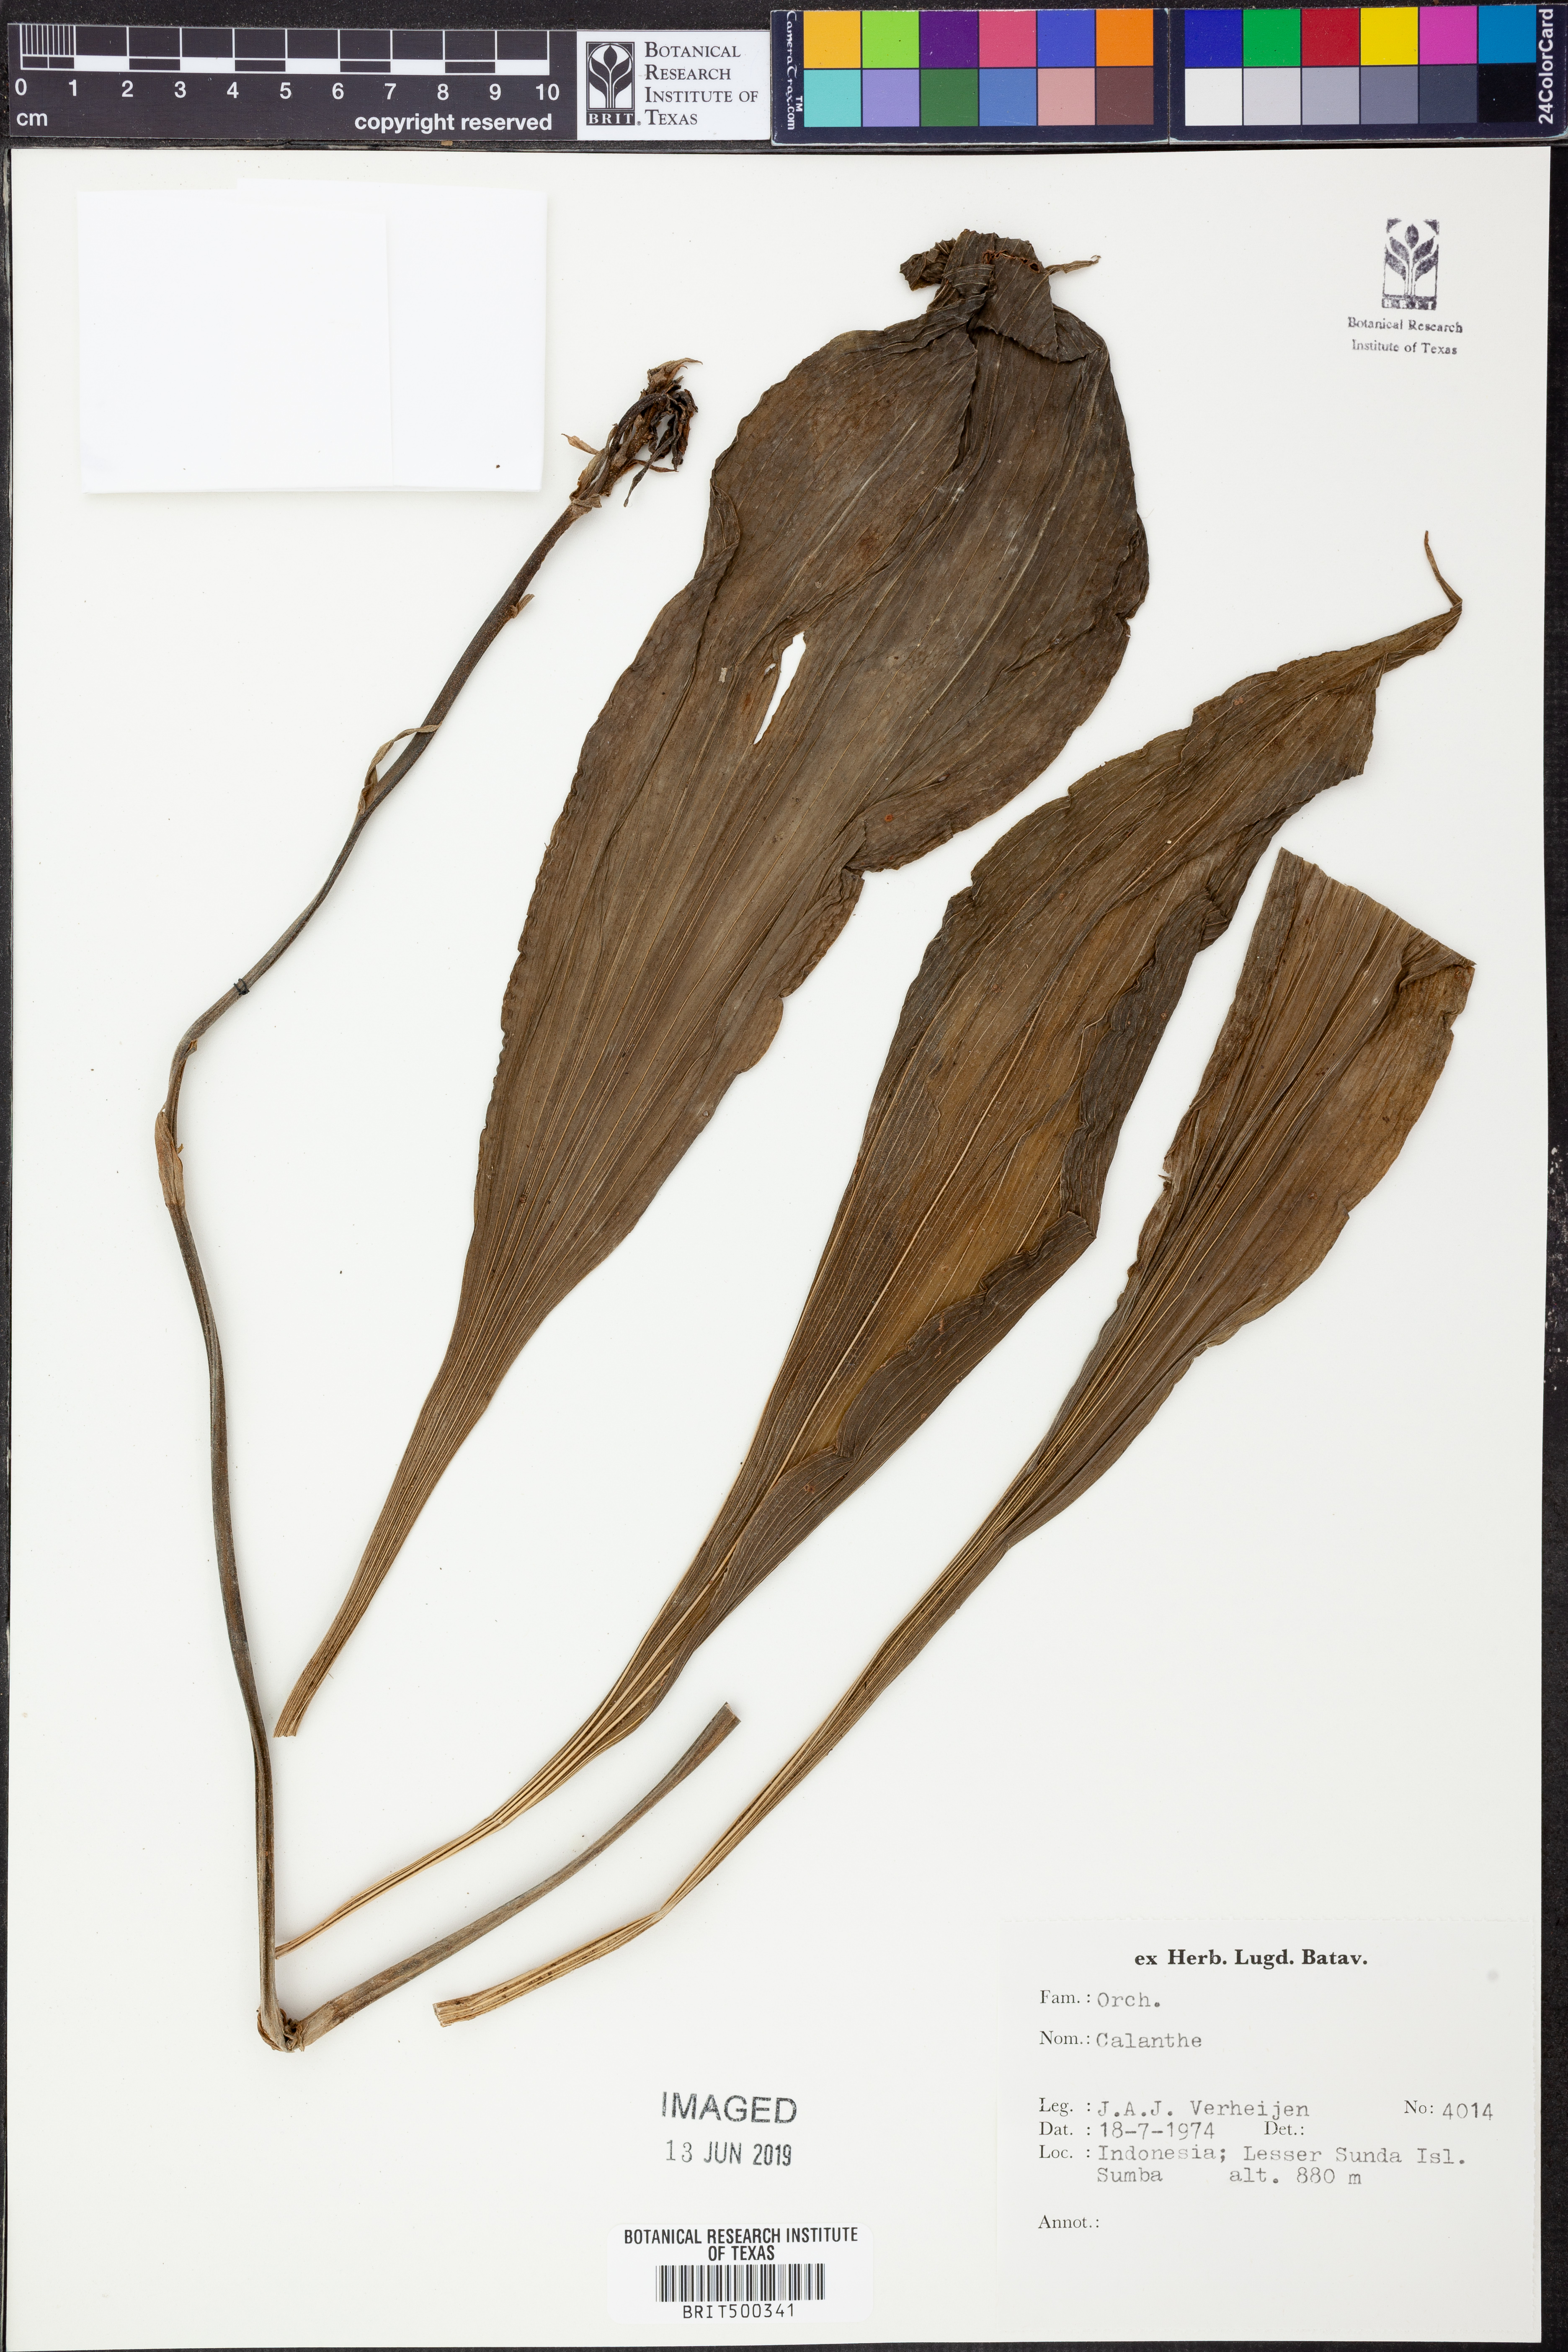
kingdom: Plantae
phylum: Tracheophyta
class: Liliopsida
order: Asparagales
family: Orchidaceae
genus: Calanthe
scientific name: Calanthe
